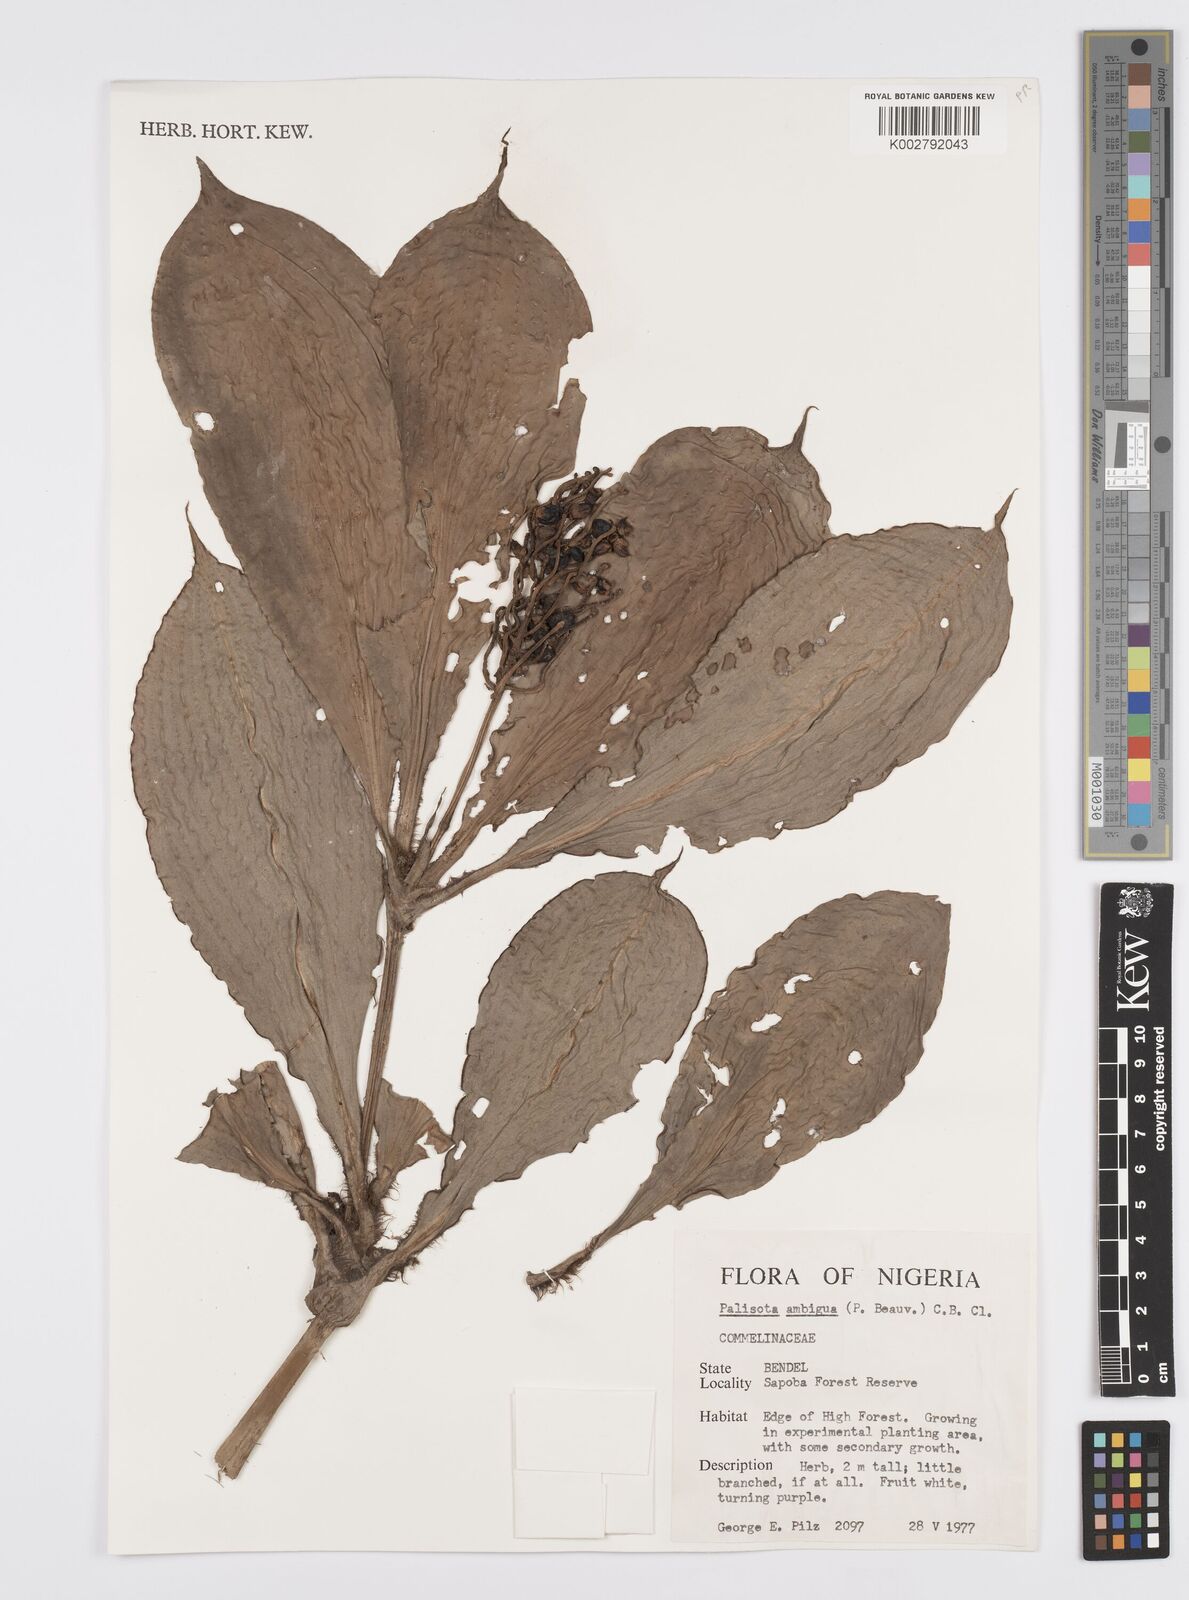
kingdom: Plantae
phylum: Tracheophyta
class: Liliopsida
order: Commelinales
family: Commelinaceae
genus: Palisota
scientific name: Palisota ambigua
